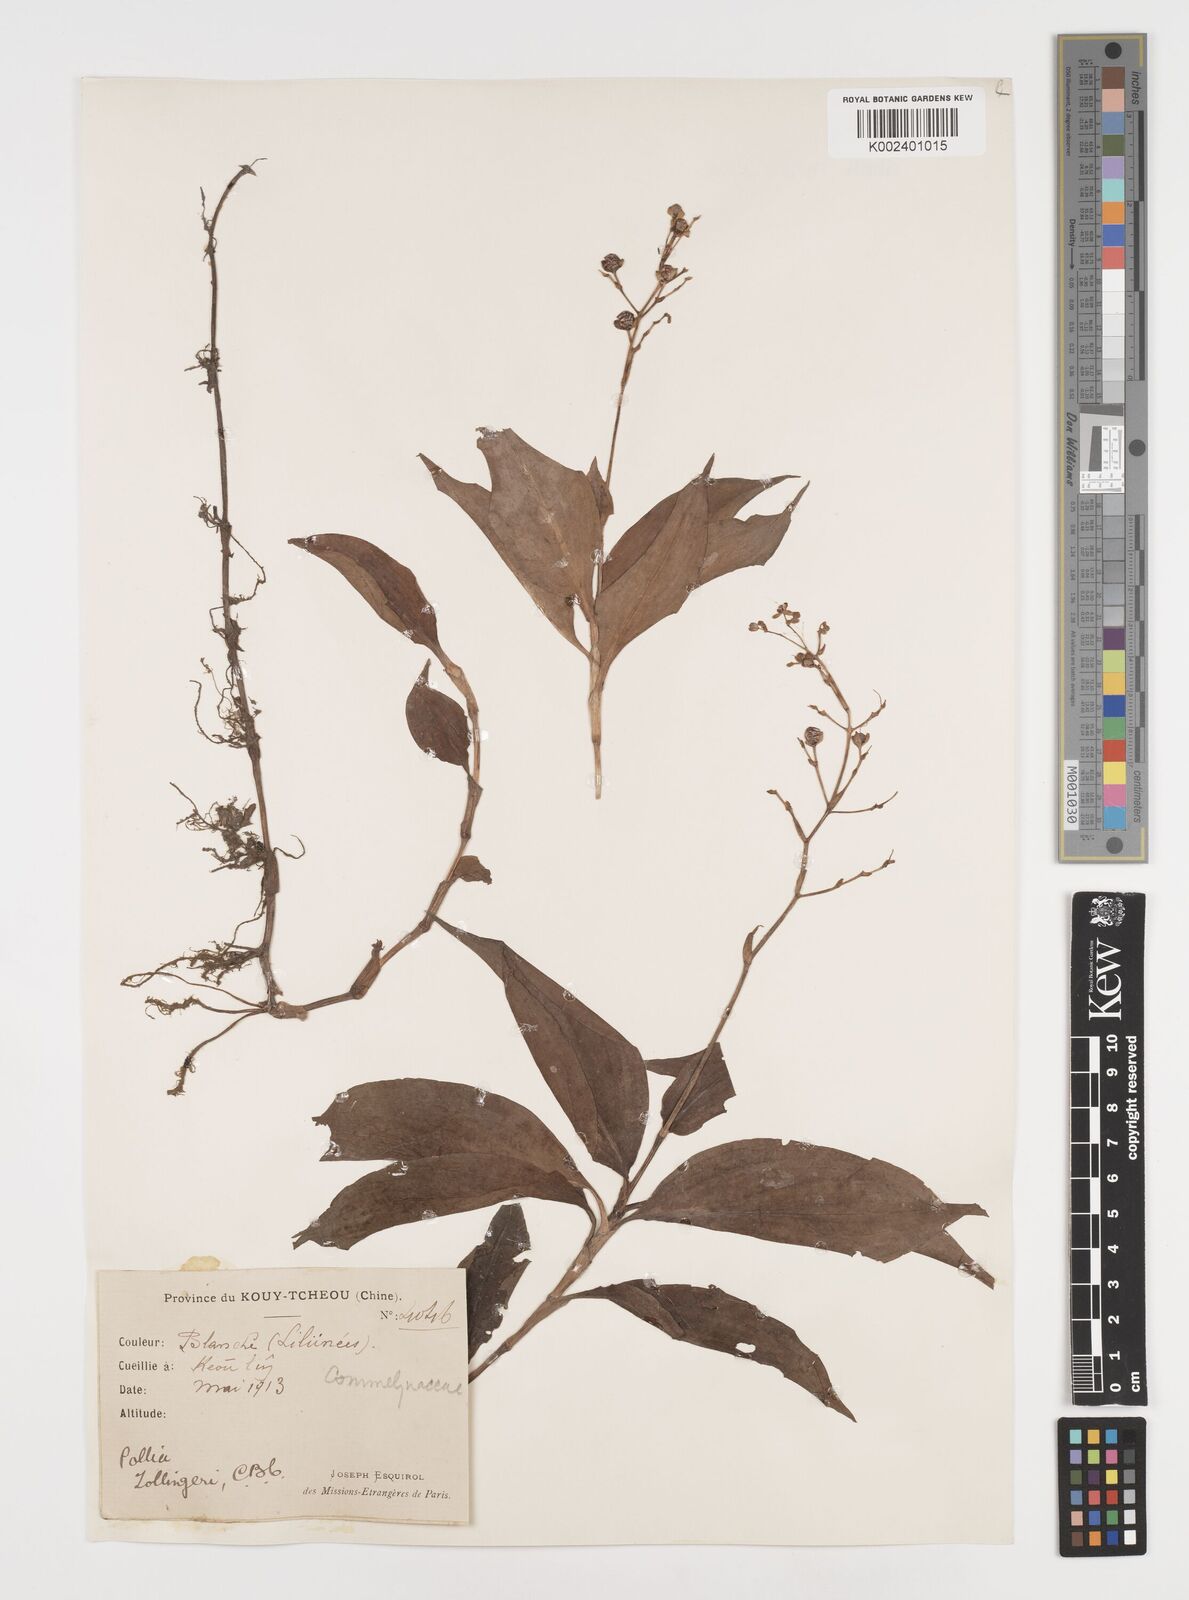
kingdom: Plantae
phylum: Tracheophyta
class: Liliopsida
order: Commelinales
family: Commelinaceae
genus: Pollia
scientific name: Pollia zollingeri
